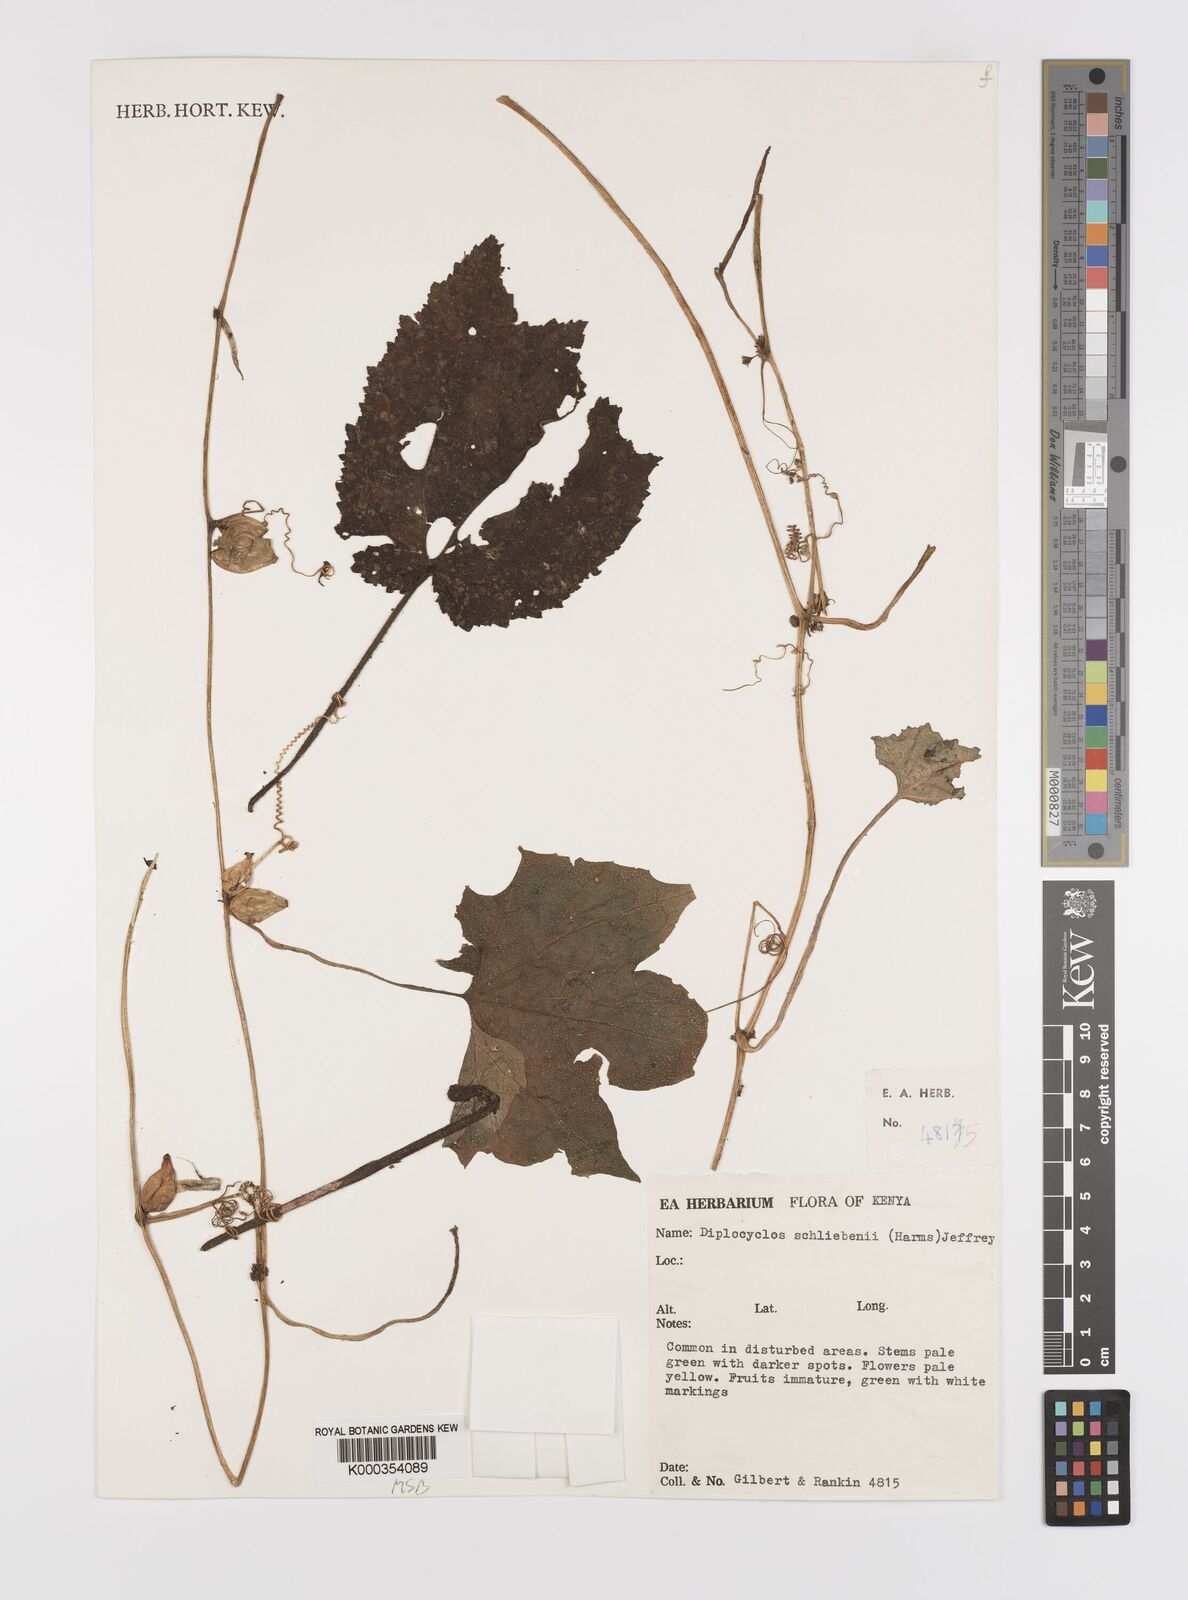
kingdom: Plantae
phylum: Tracheophyta
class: Magnoliopsida
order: Cucurbitales
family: Cucurbitaceae
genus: Diplocyclos
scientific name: Diplocyclos schliebenii
